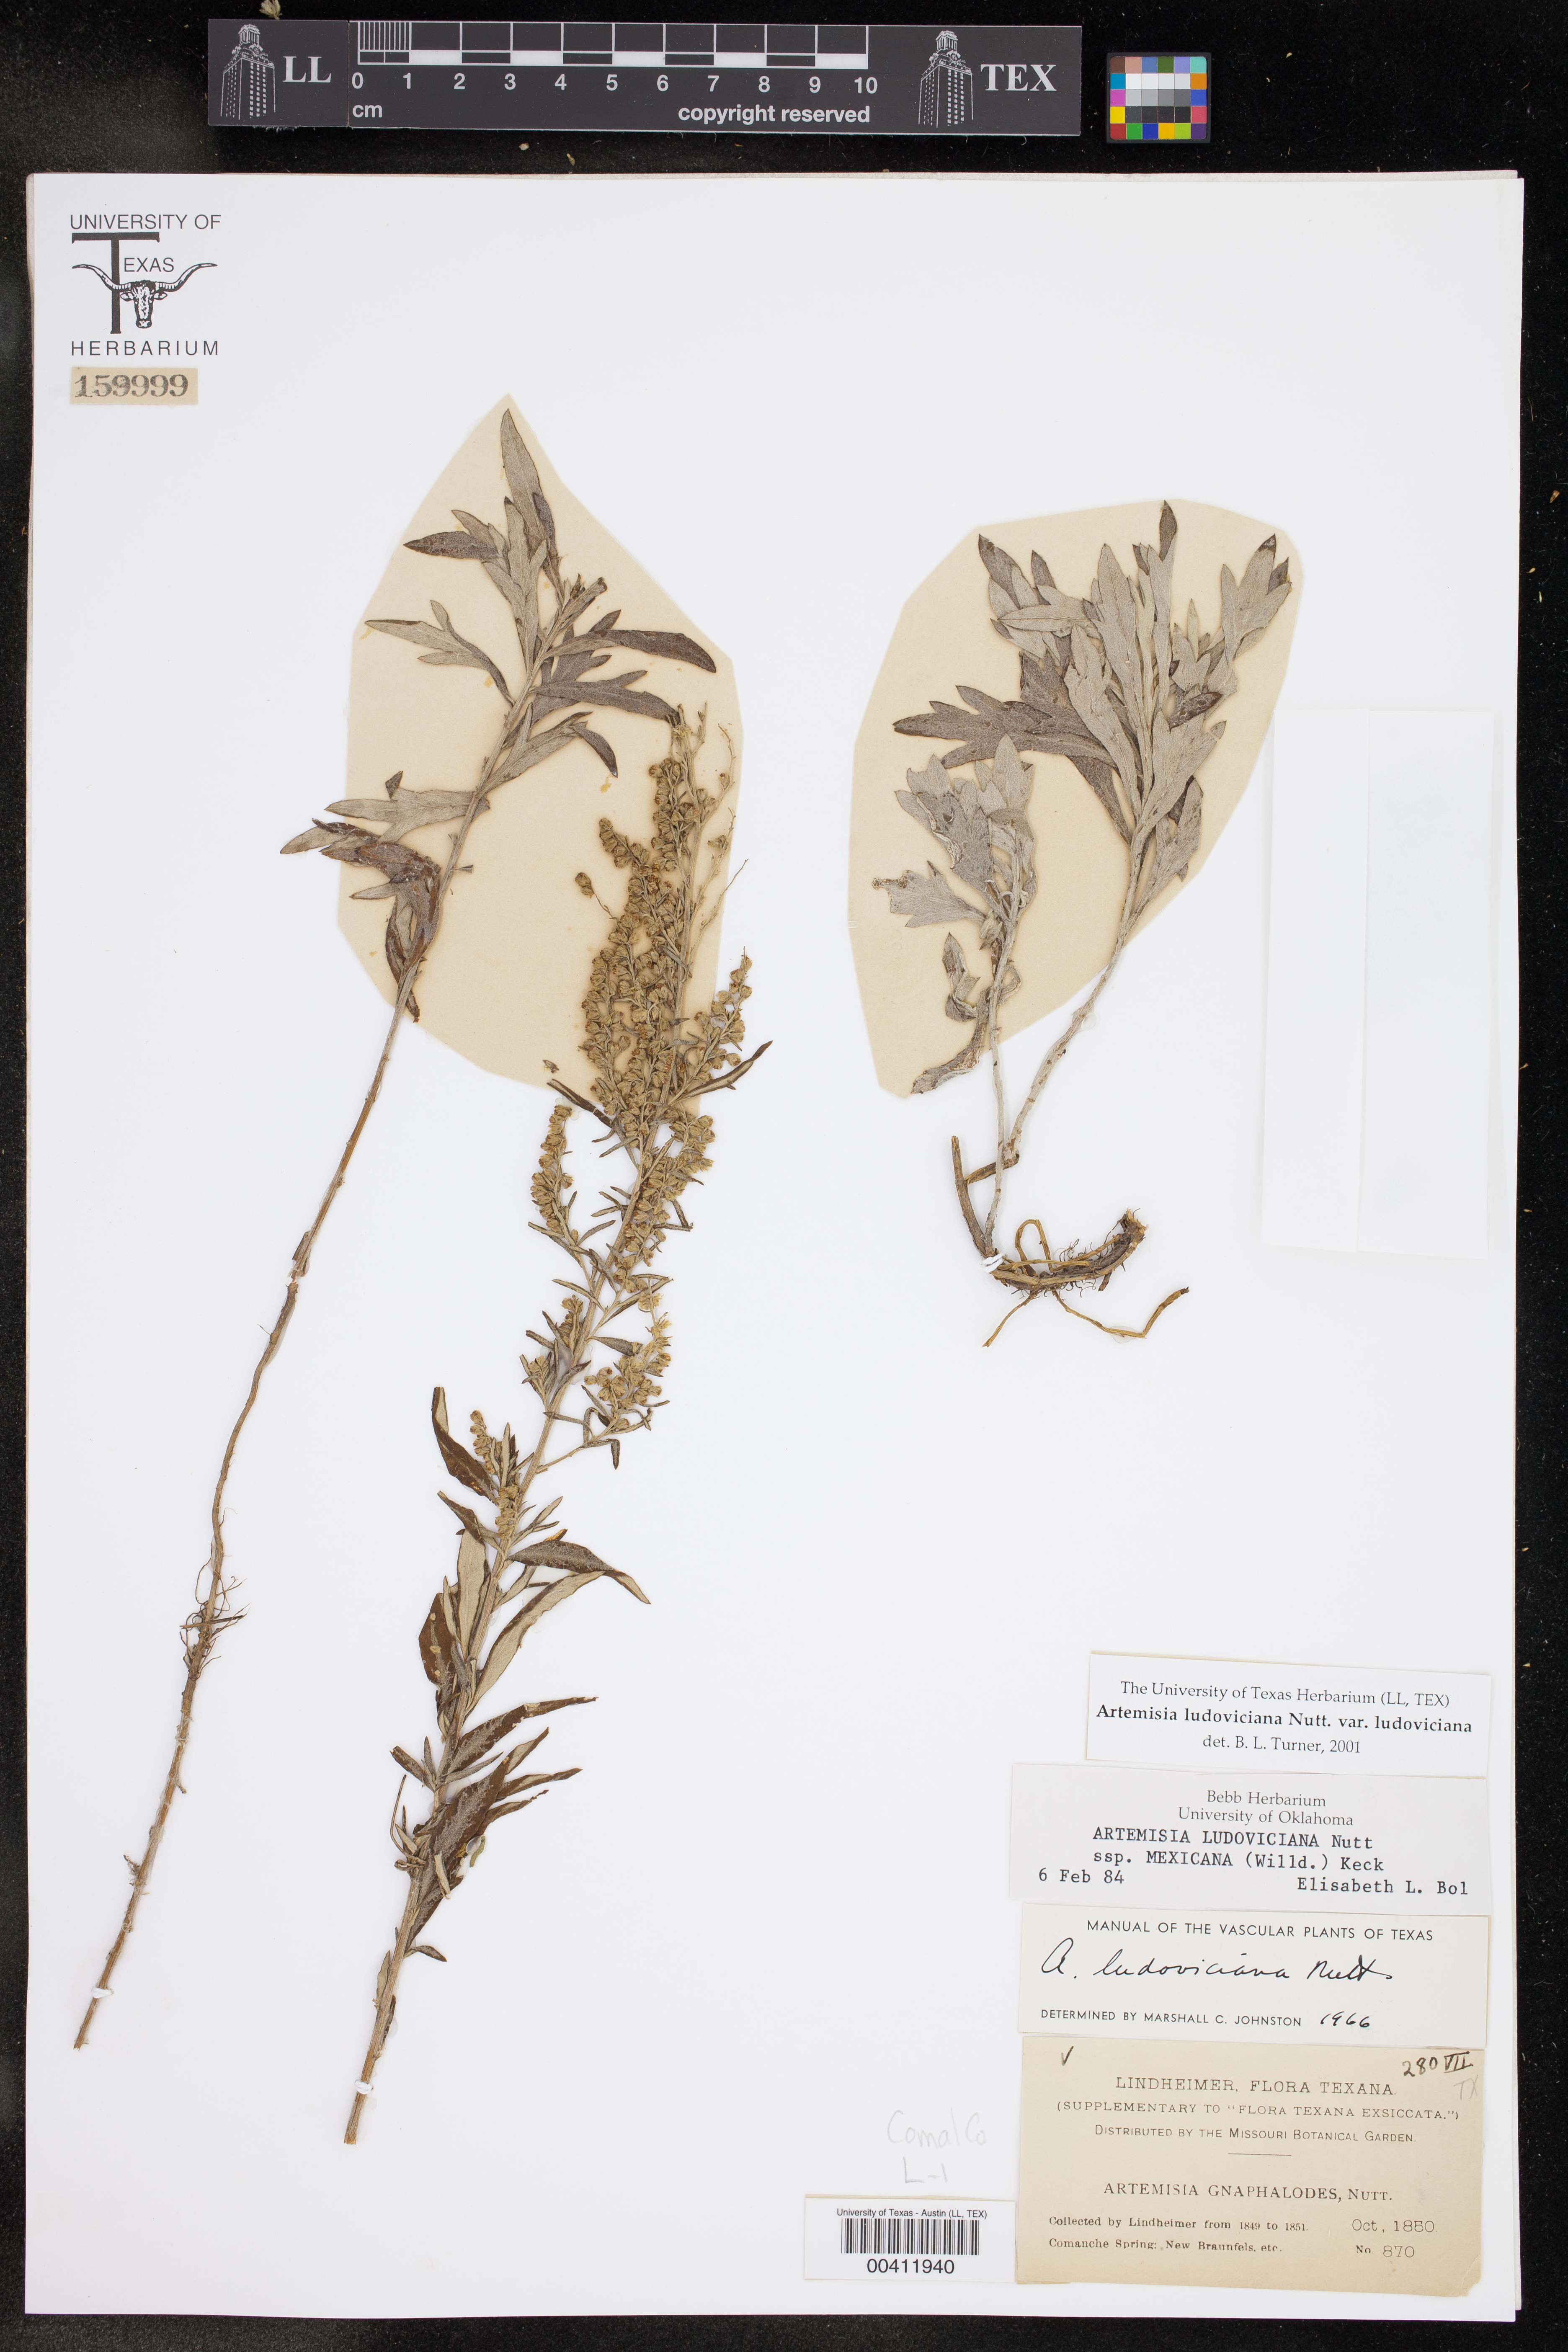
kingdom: Plantae
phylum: Tracheophyta
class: Magnoliopsida
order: Asterales
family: Asteraceae
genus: Artemisia
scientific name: Artemisia ludoviciana
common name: Western mugwort
